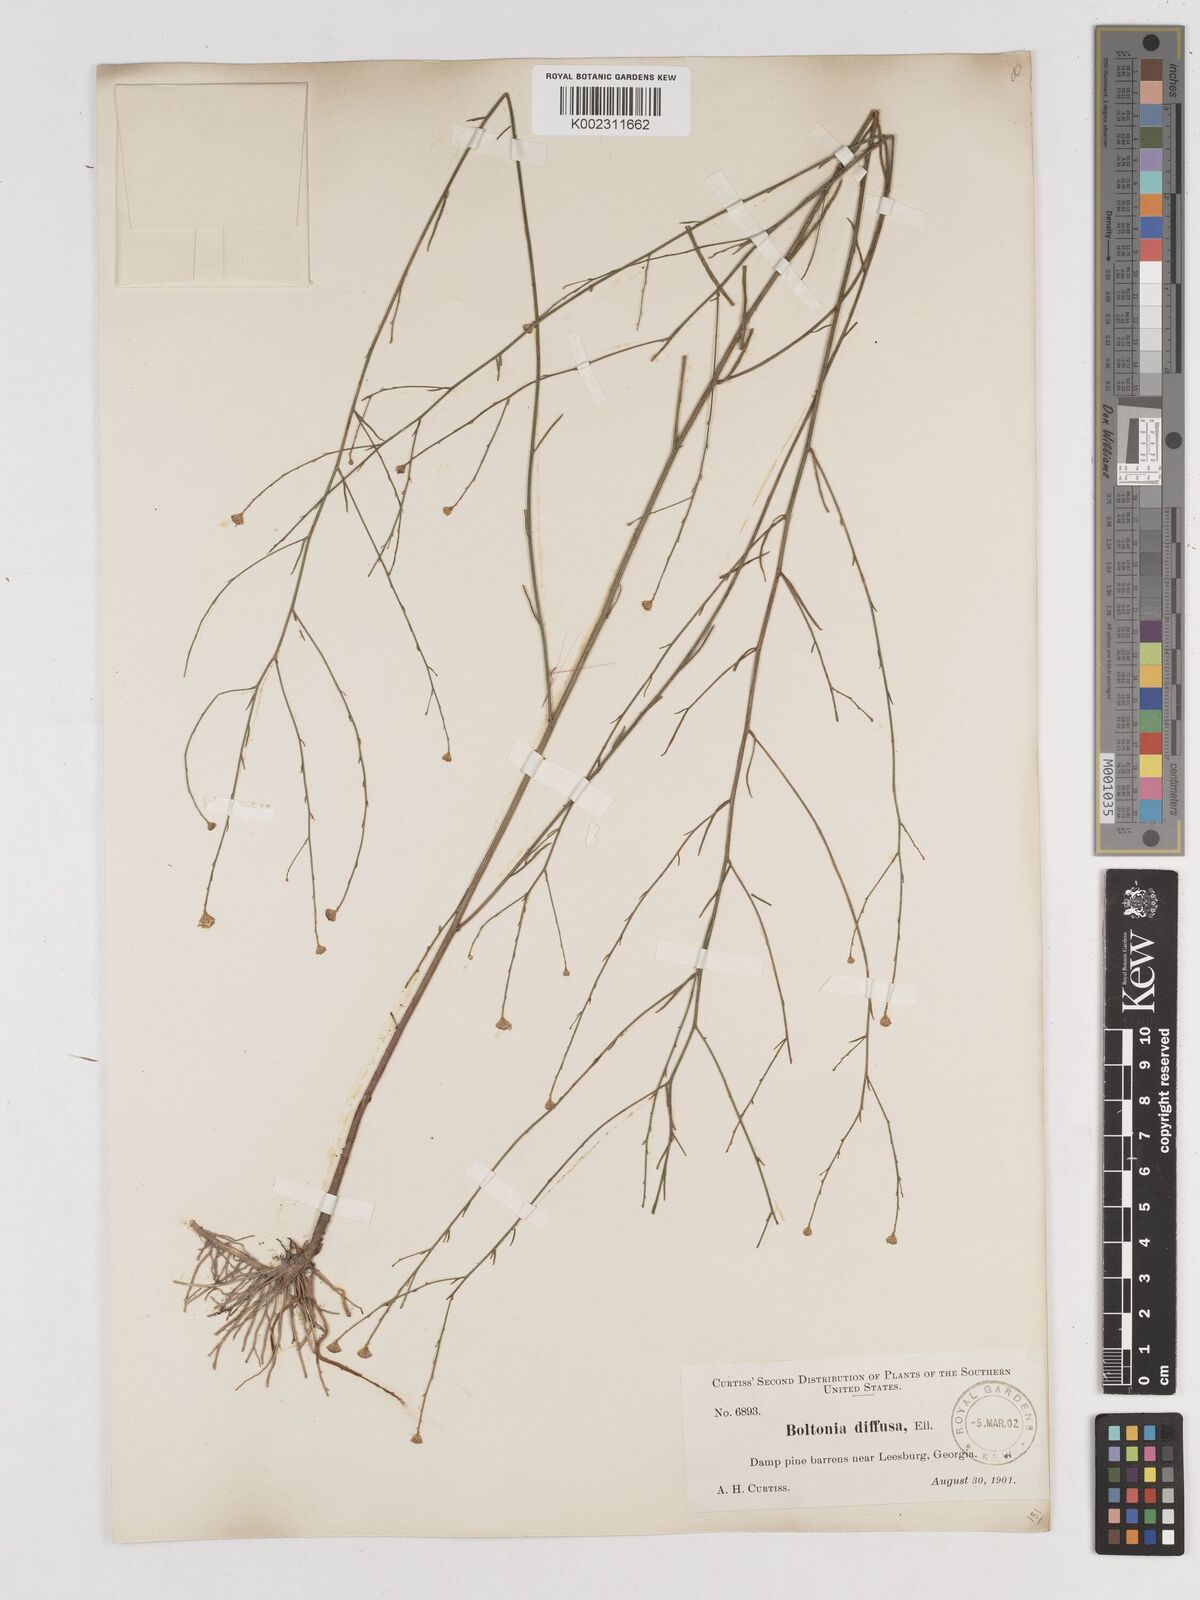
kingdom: Plantae
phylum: Tracheophyta
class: Magnoliopsida
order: Asterales
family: Asteraceae
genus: Boltonia
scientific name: Boltonia diffusa
